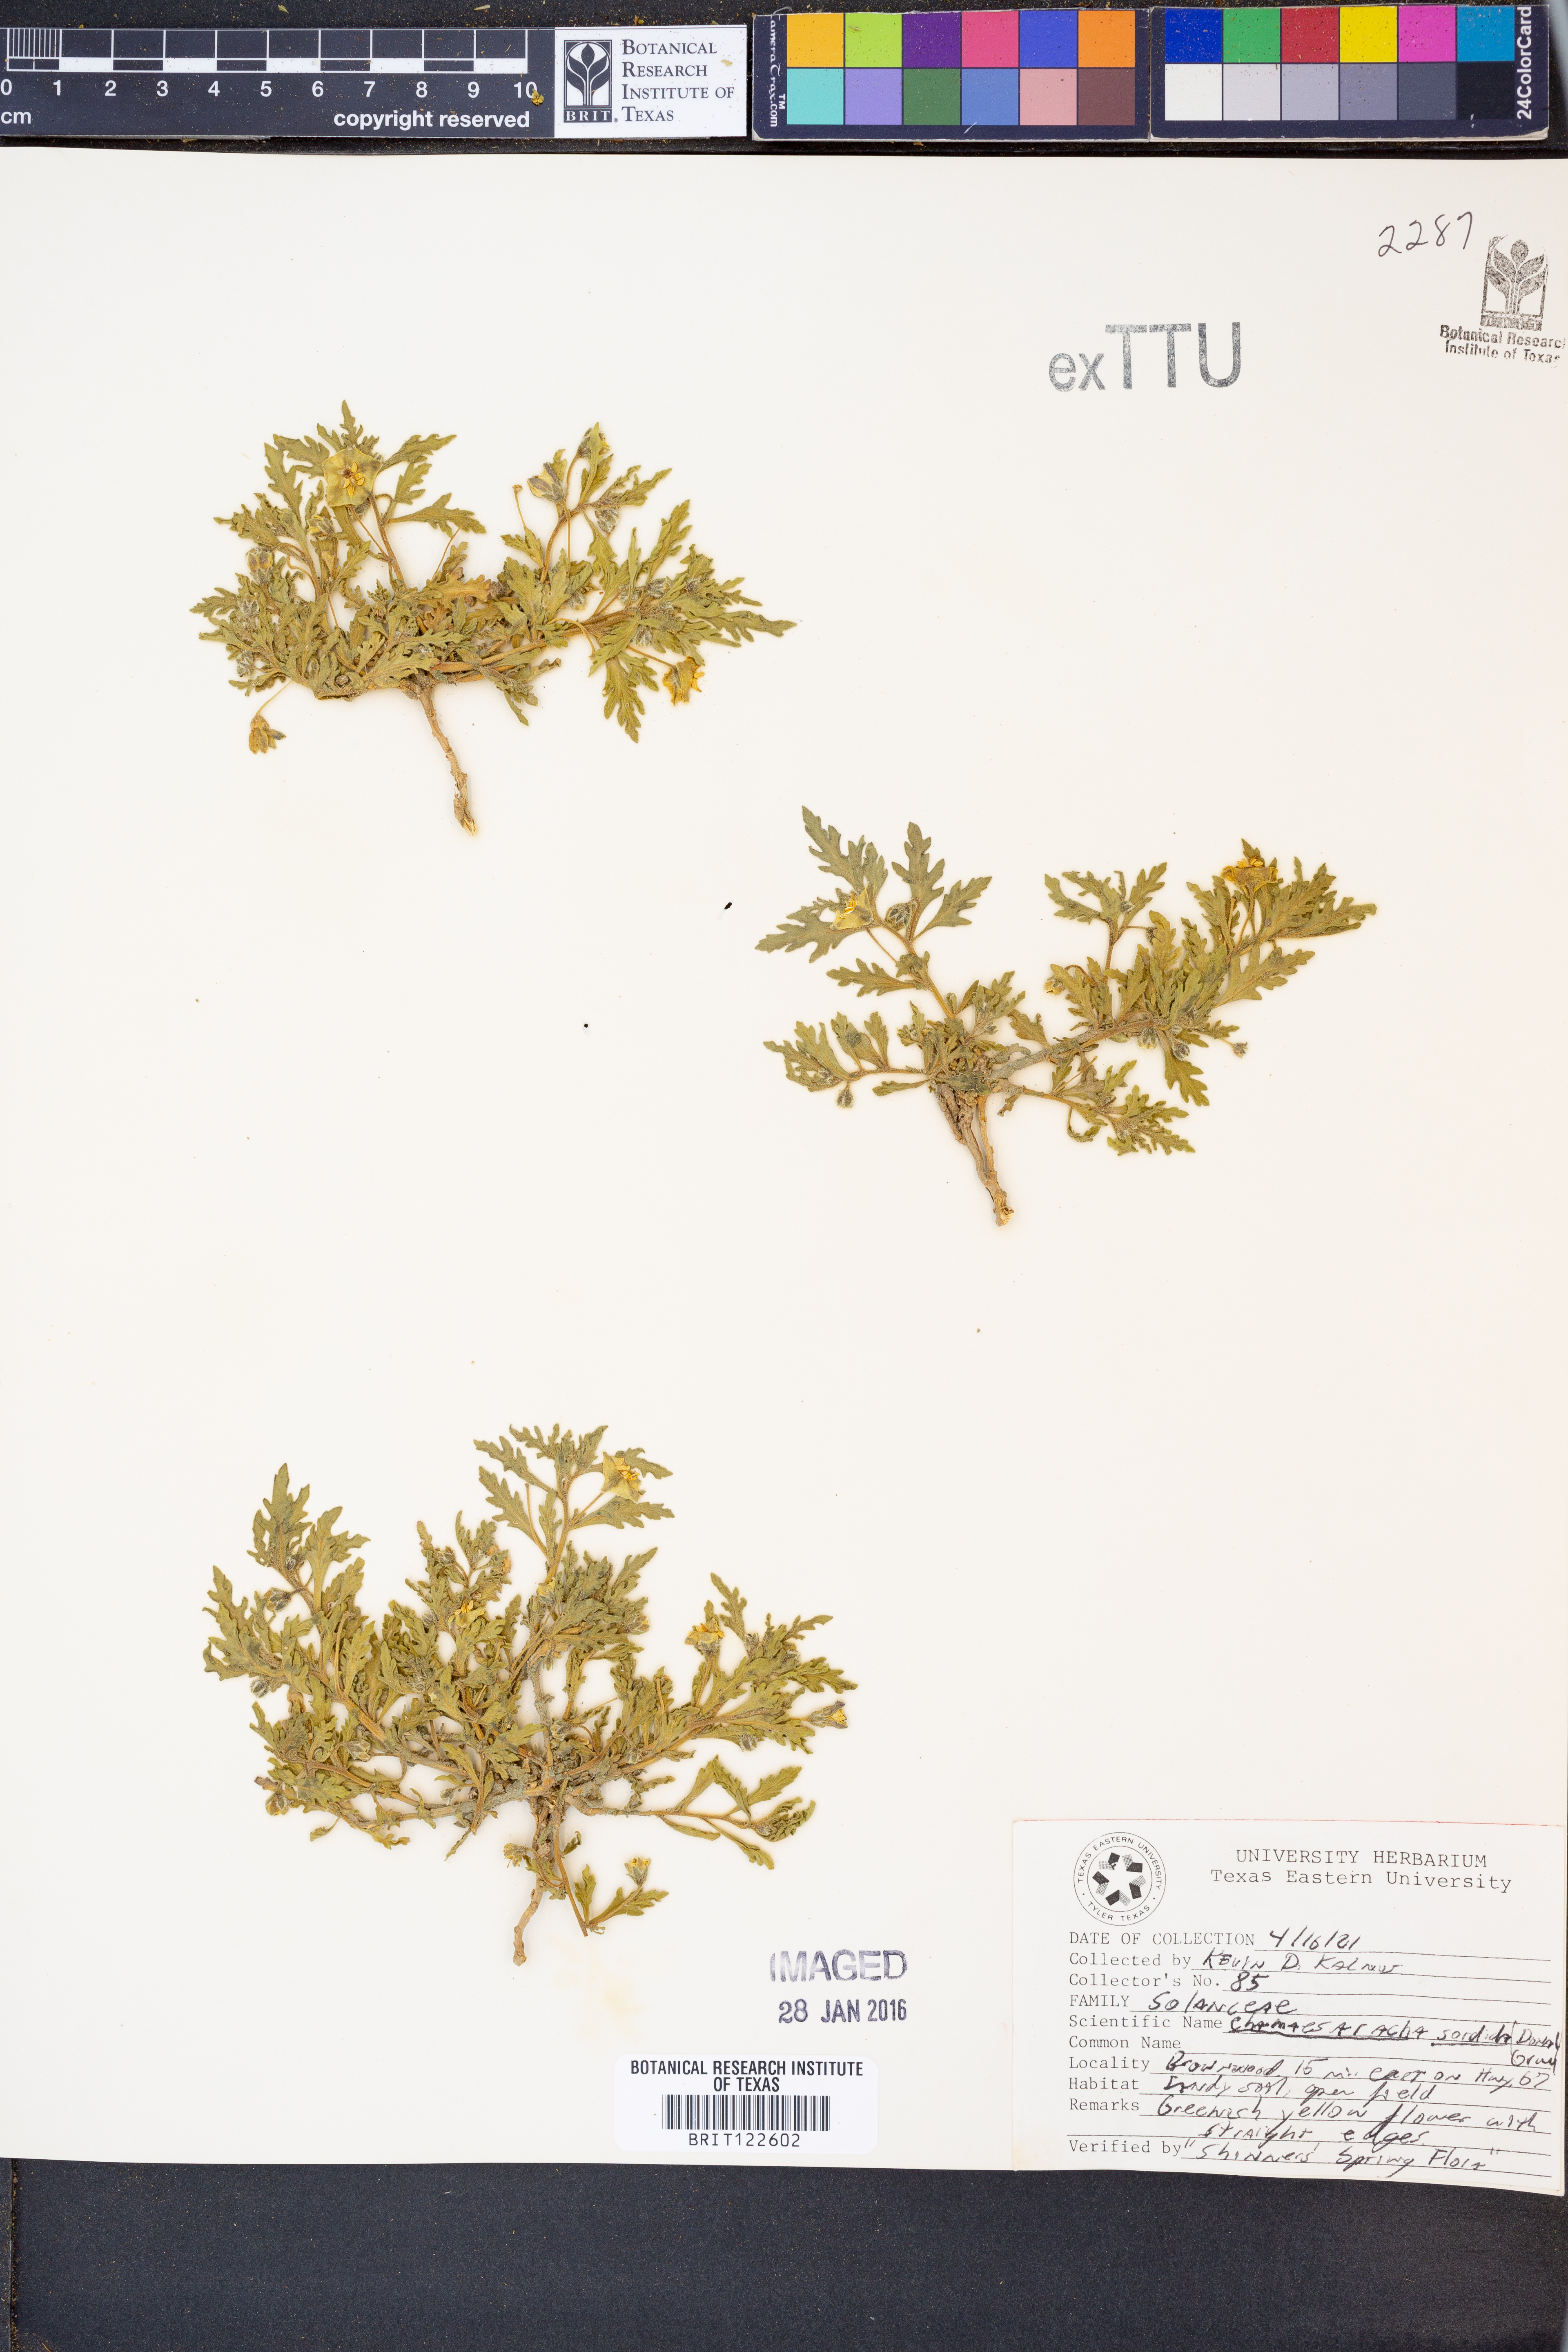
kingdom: Plantae
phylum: Tracheophyta
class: Magnoliopsida
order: Solanales
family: Solanaceae
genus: Chamaesaracha
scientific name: Chamaesaracha sordida
